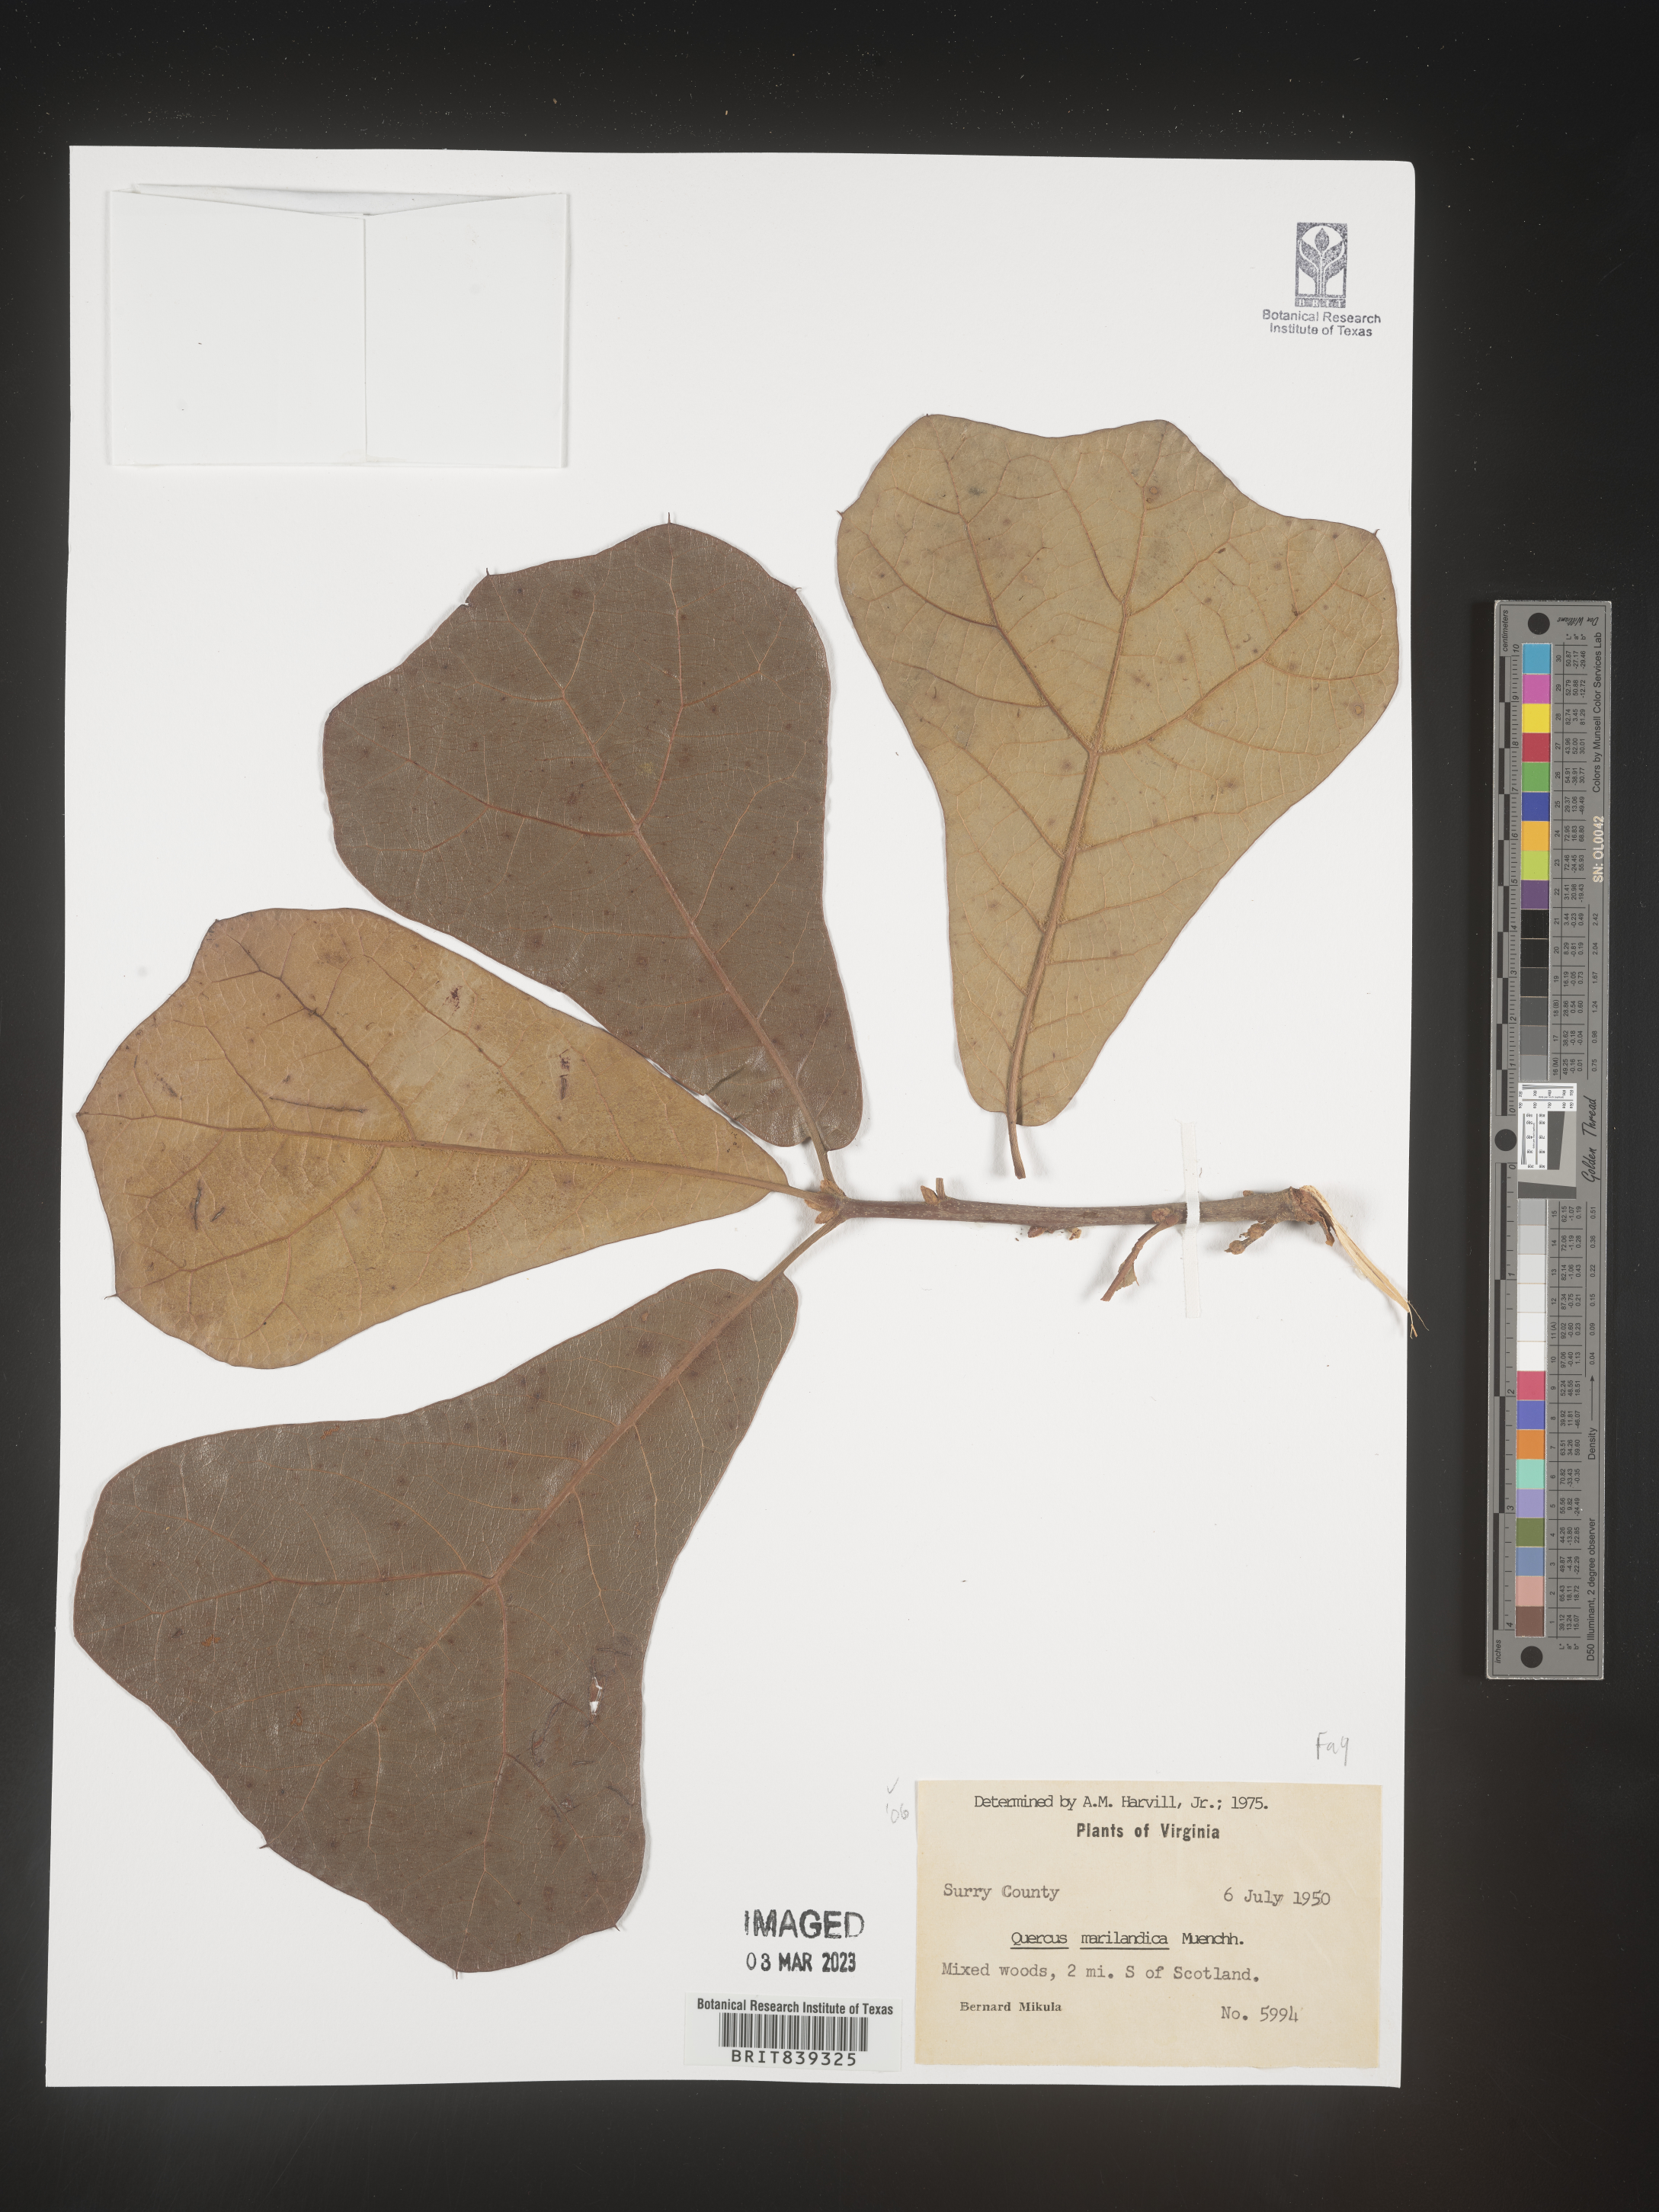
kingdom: Plantae
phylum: Tracheophyta
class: Magnoliopsida
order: Fagales
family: Fagaceae
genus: Quercus
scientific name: Quercus marilandica
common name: Blackjack oak
